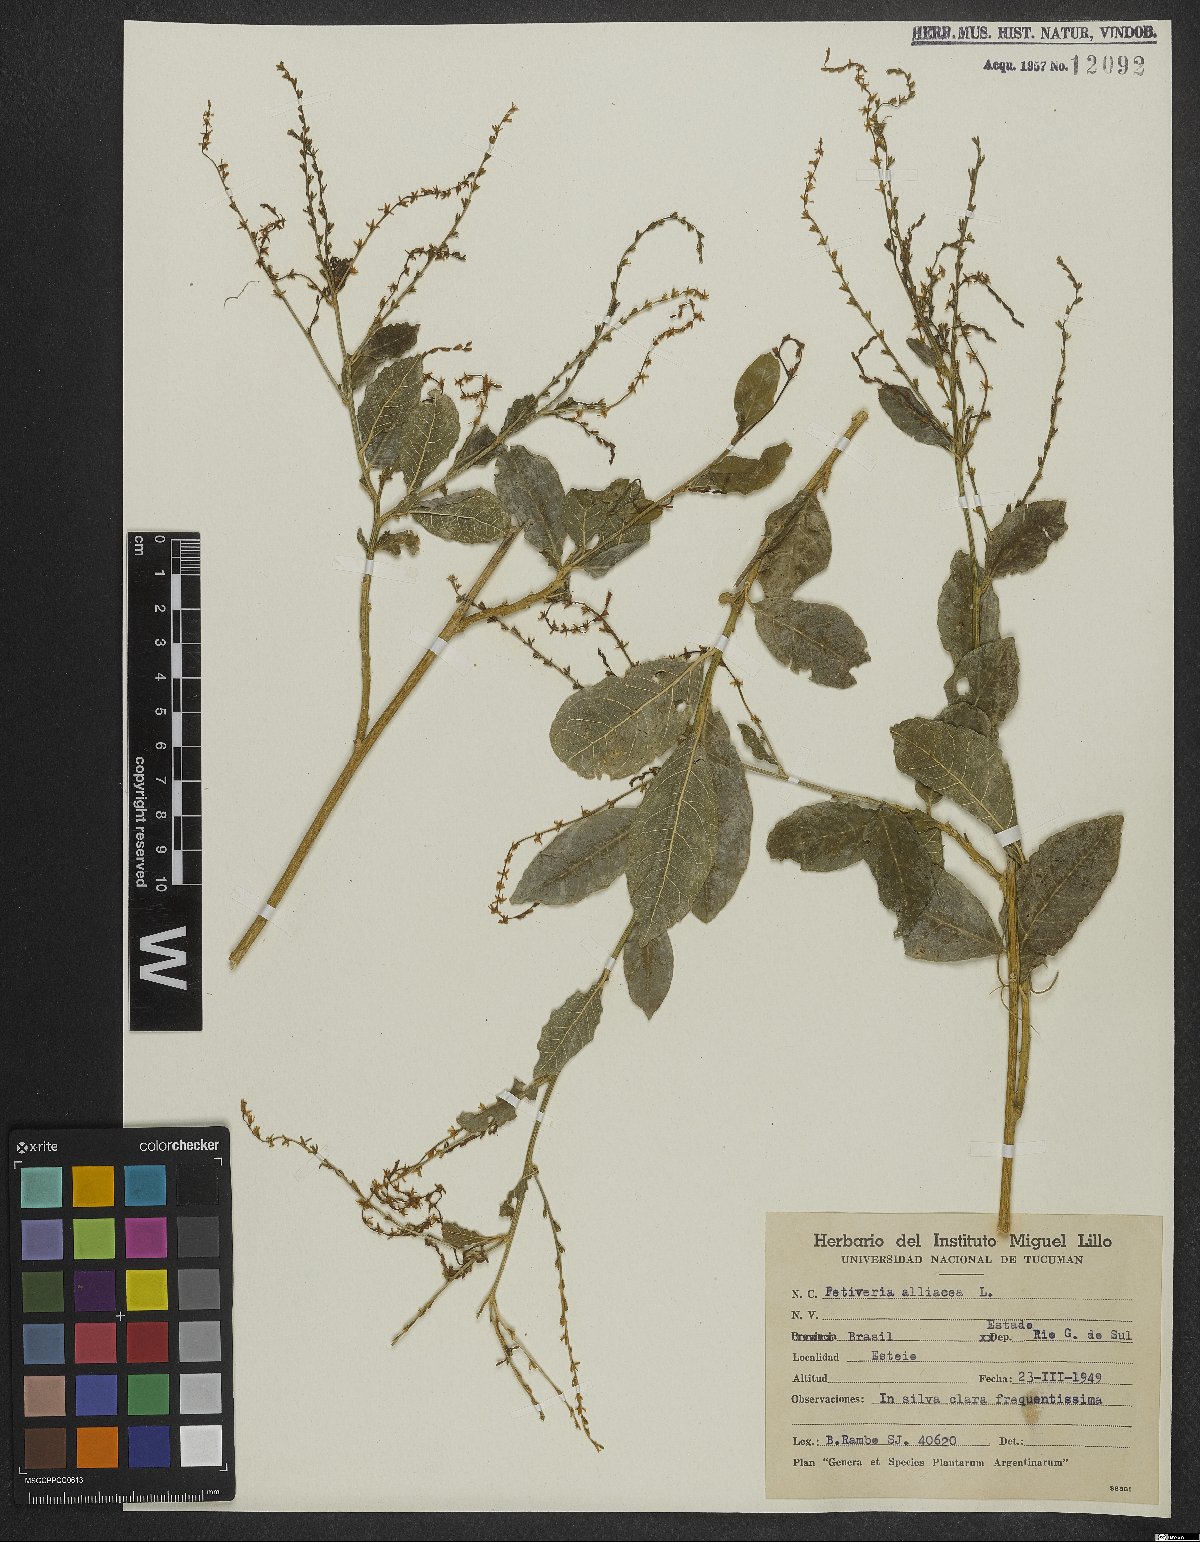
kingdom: Plantae
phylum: Tracheophyta
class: Magnoliopsida
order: Caryophyllales
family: Phytolaccaceae
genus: Petiveria
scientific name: Petiveria alliacea
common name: Garlicweed
